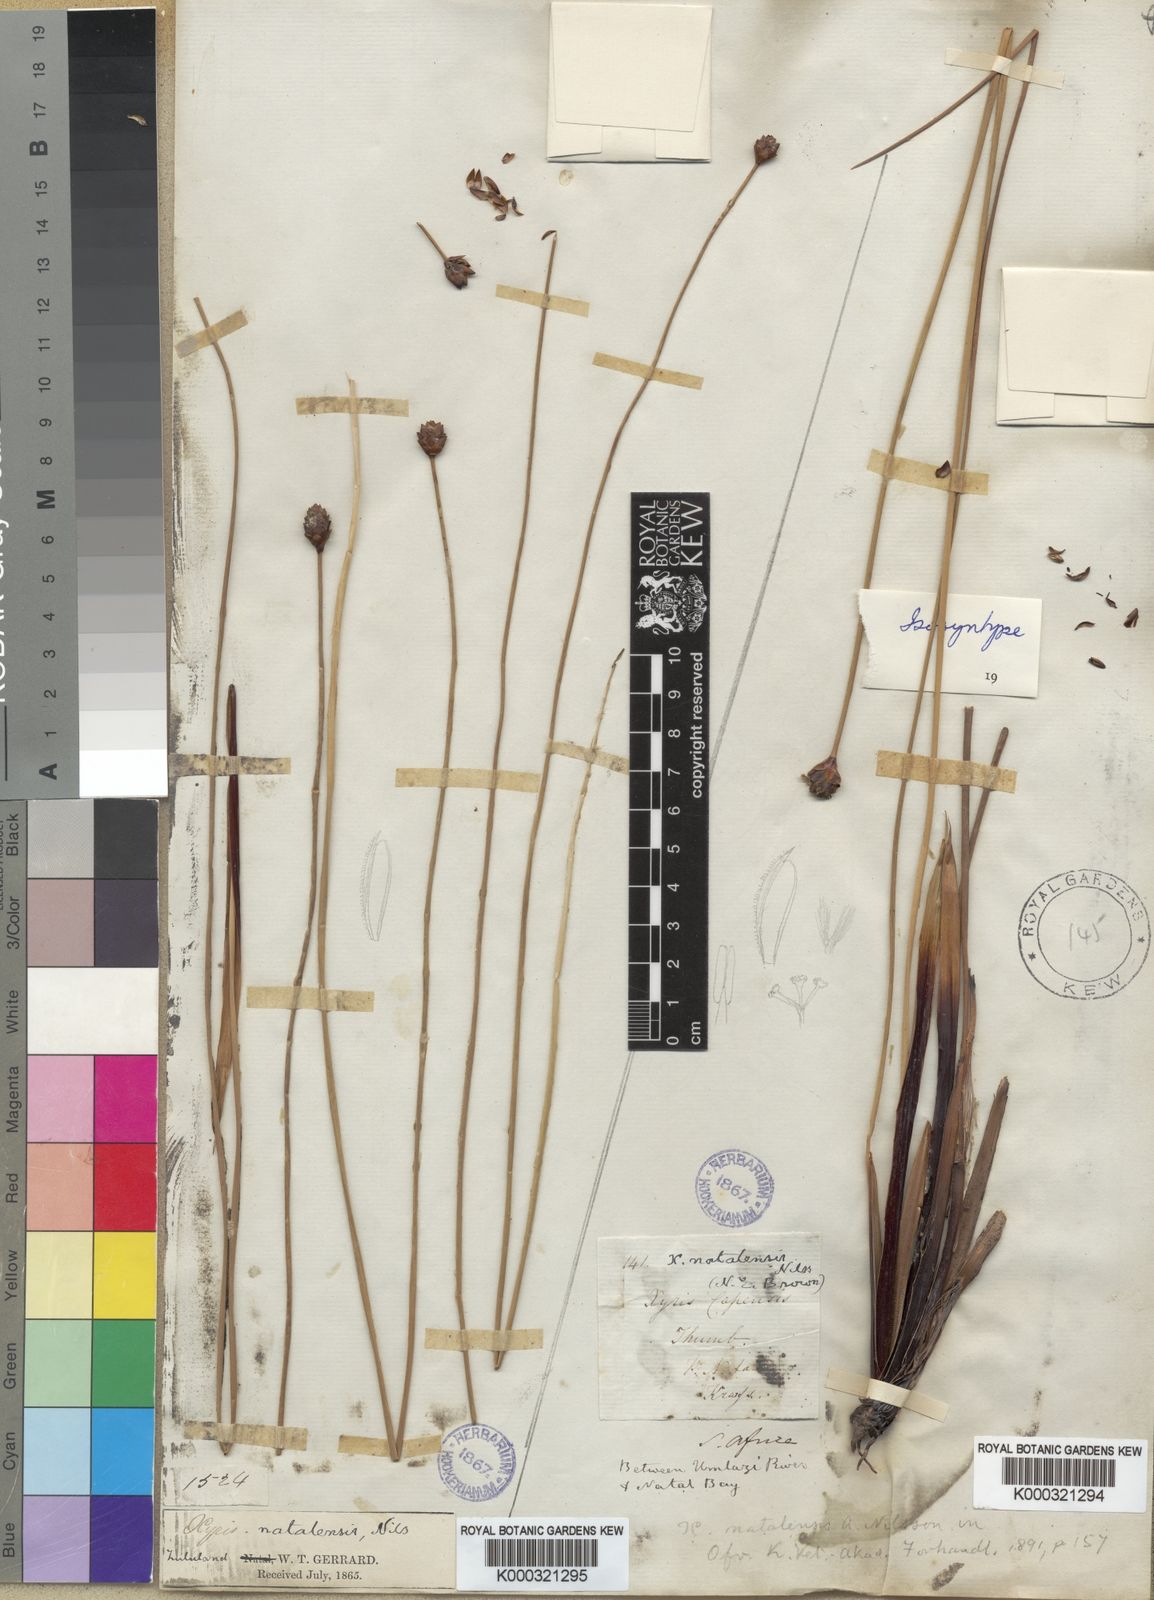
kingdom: Plantae
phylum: Tracheophyta
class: Liliopsida
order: Poales
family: Xyridaceae
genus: Xyris
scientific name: Xyris natalensis
